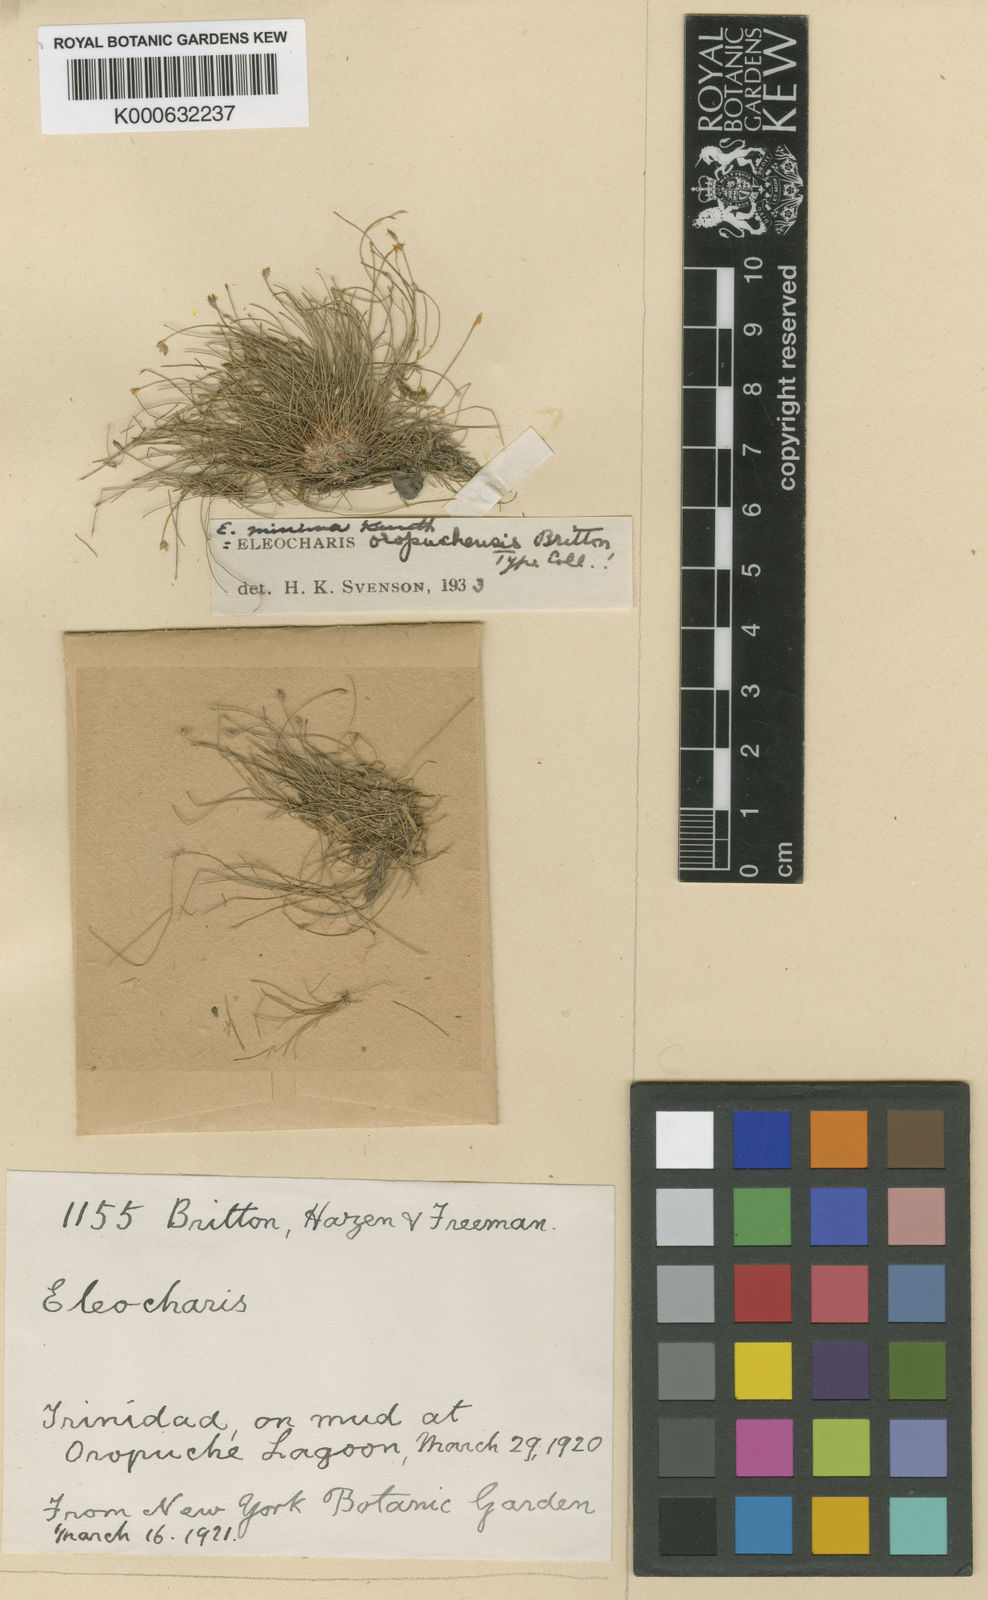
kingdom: Plantae
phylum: Tracheophyta
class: Liliopsida
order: Poales
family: Cyperaceae
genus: Eleocharis
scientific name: Eleocharis minima
